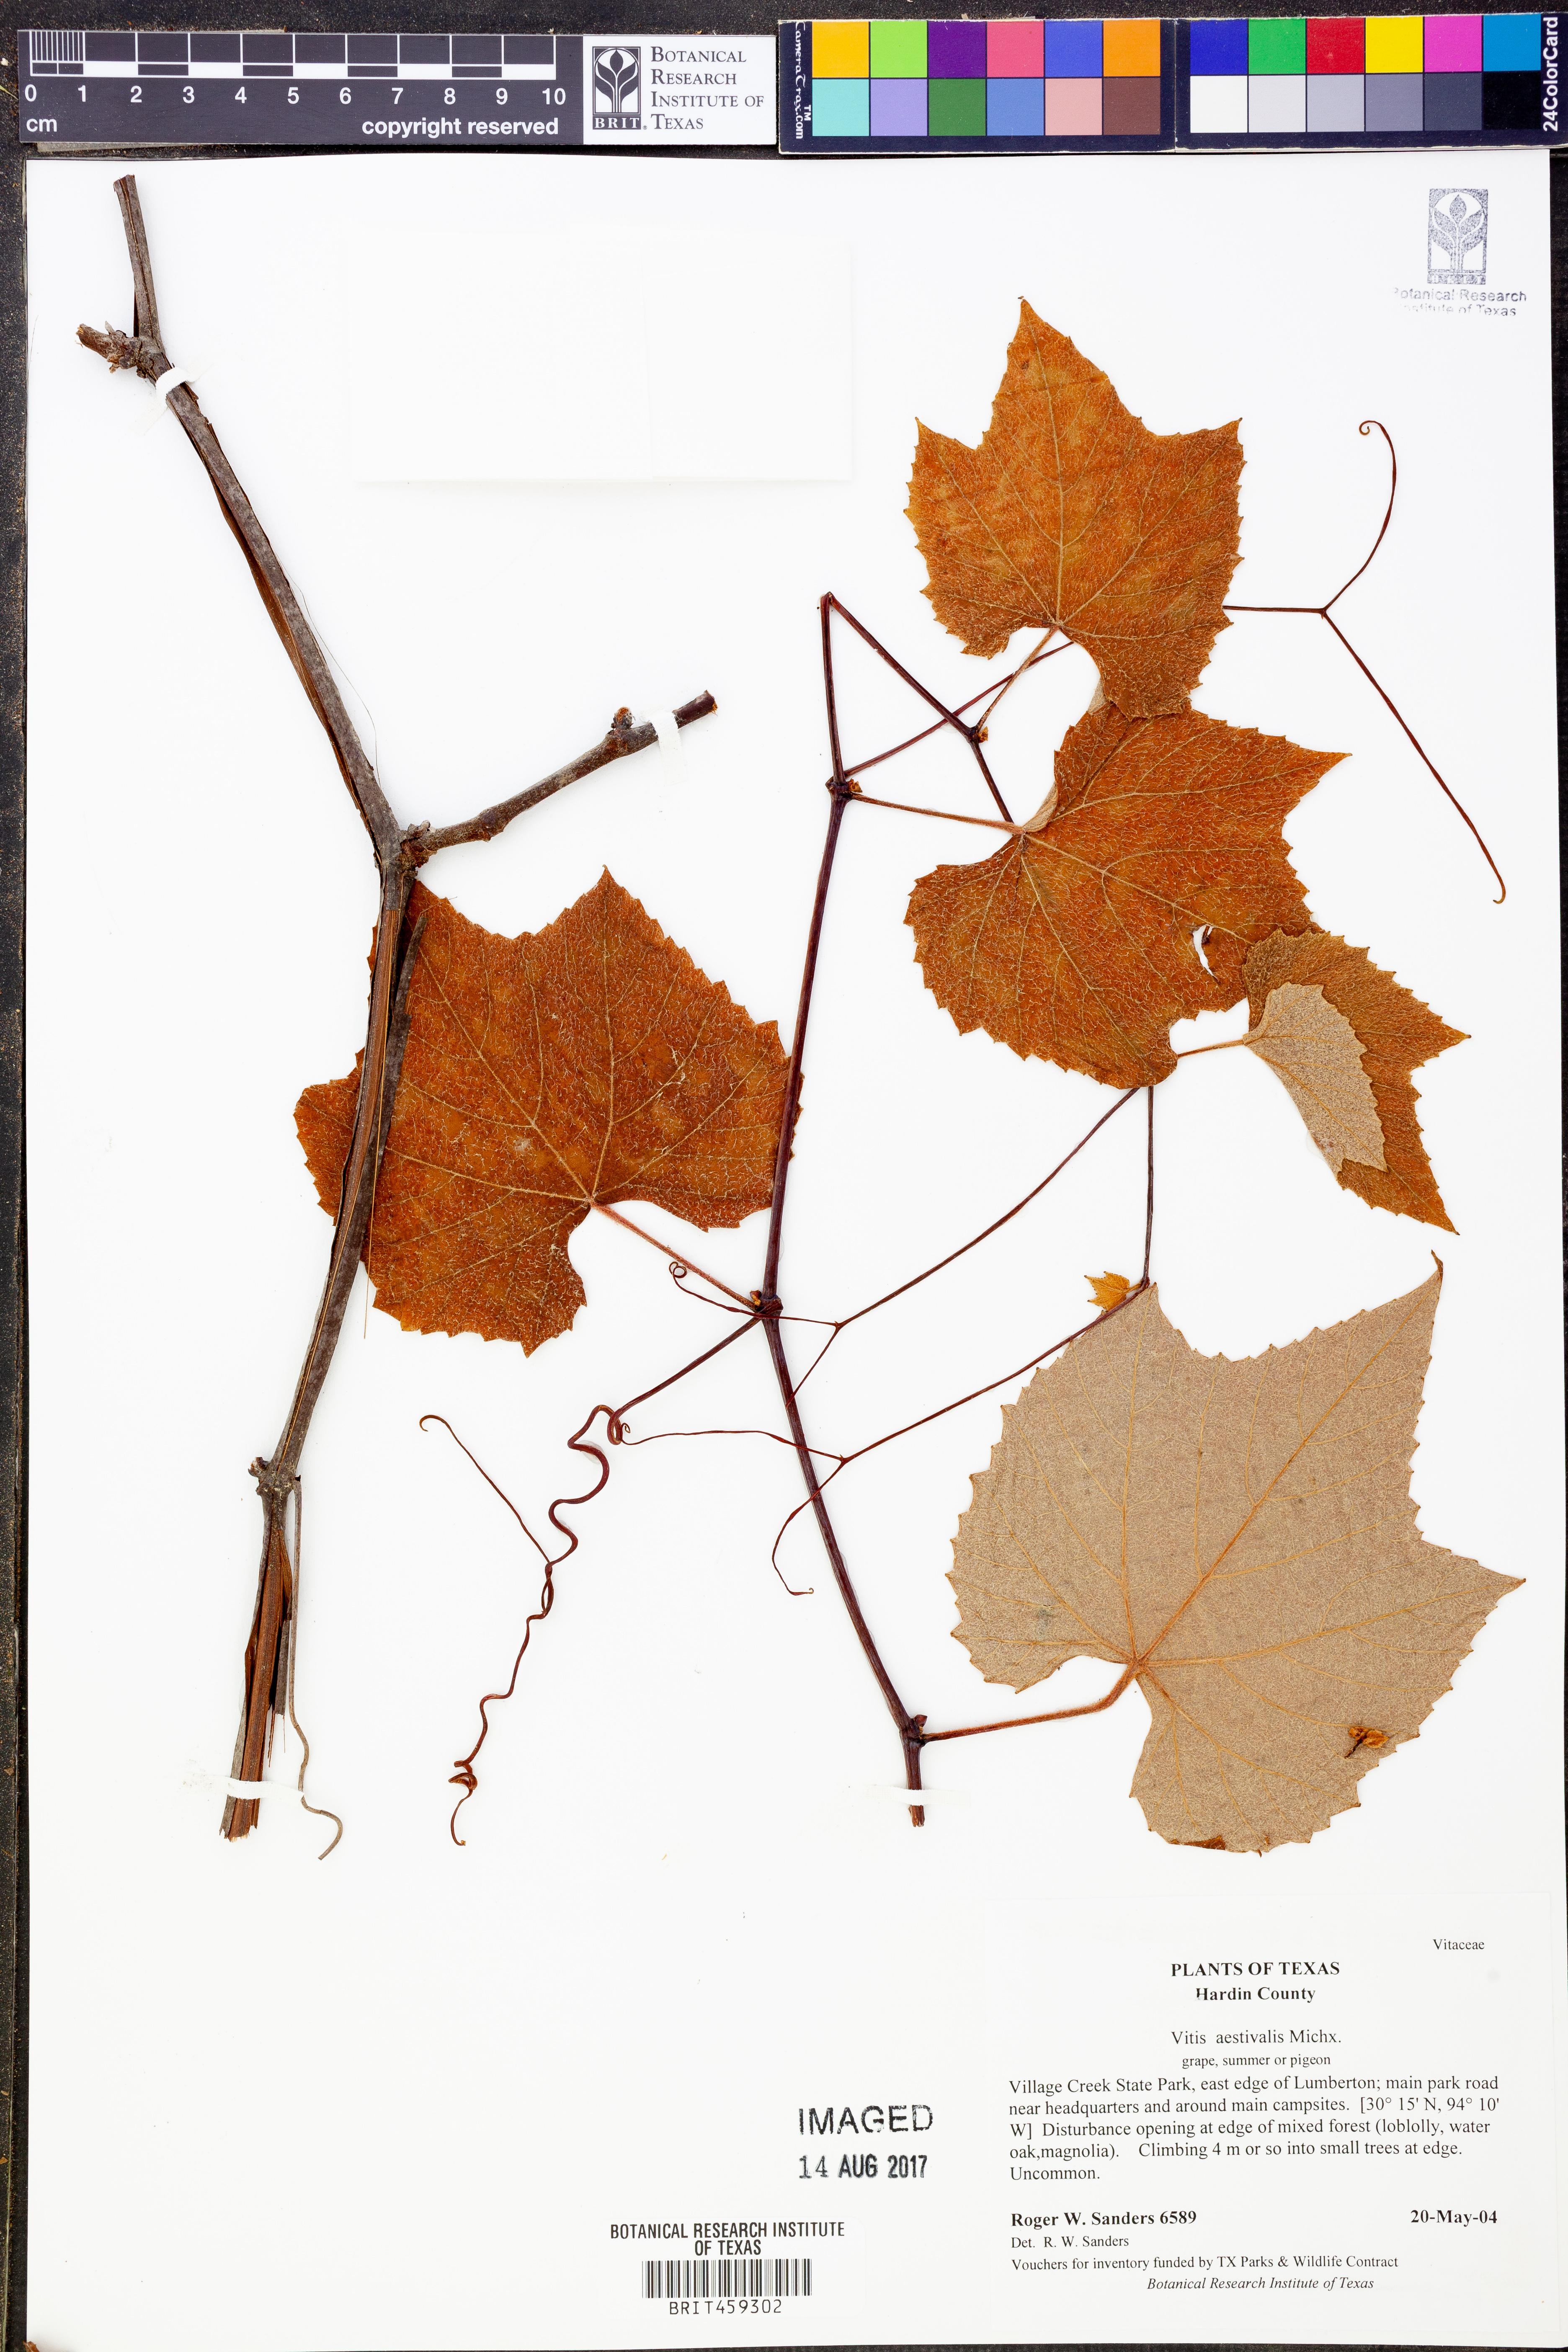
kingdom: Plantae
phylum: Tracheophyta
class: Magnoliopsida
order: Vitales
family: Vitaceae
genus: Vitis
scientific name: Vitis aestivalis
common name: Pigeon grape
